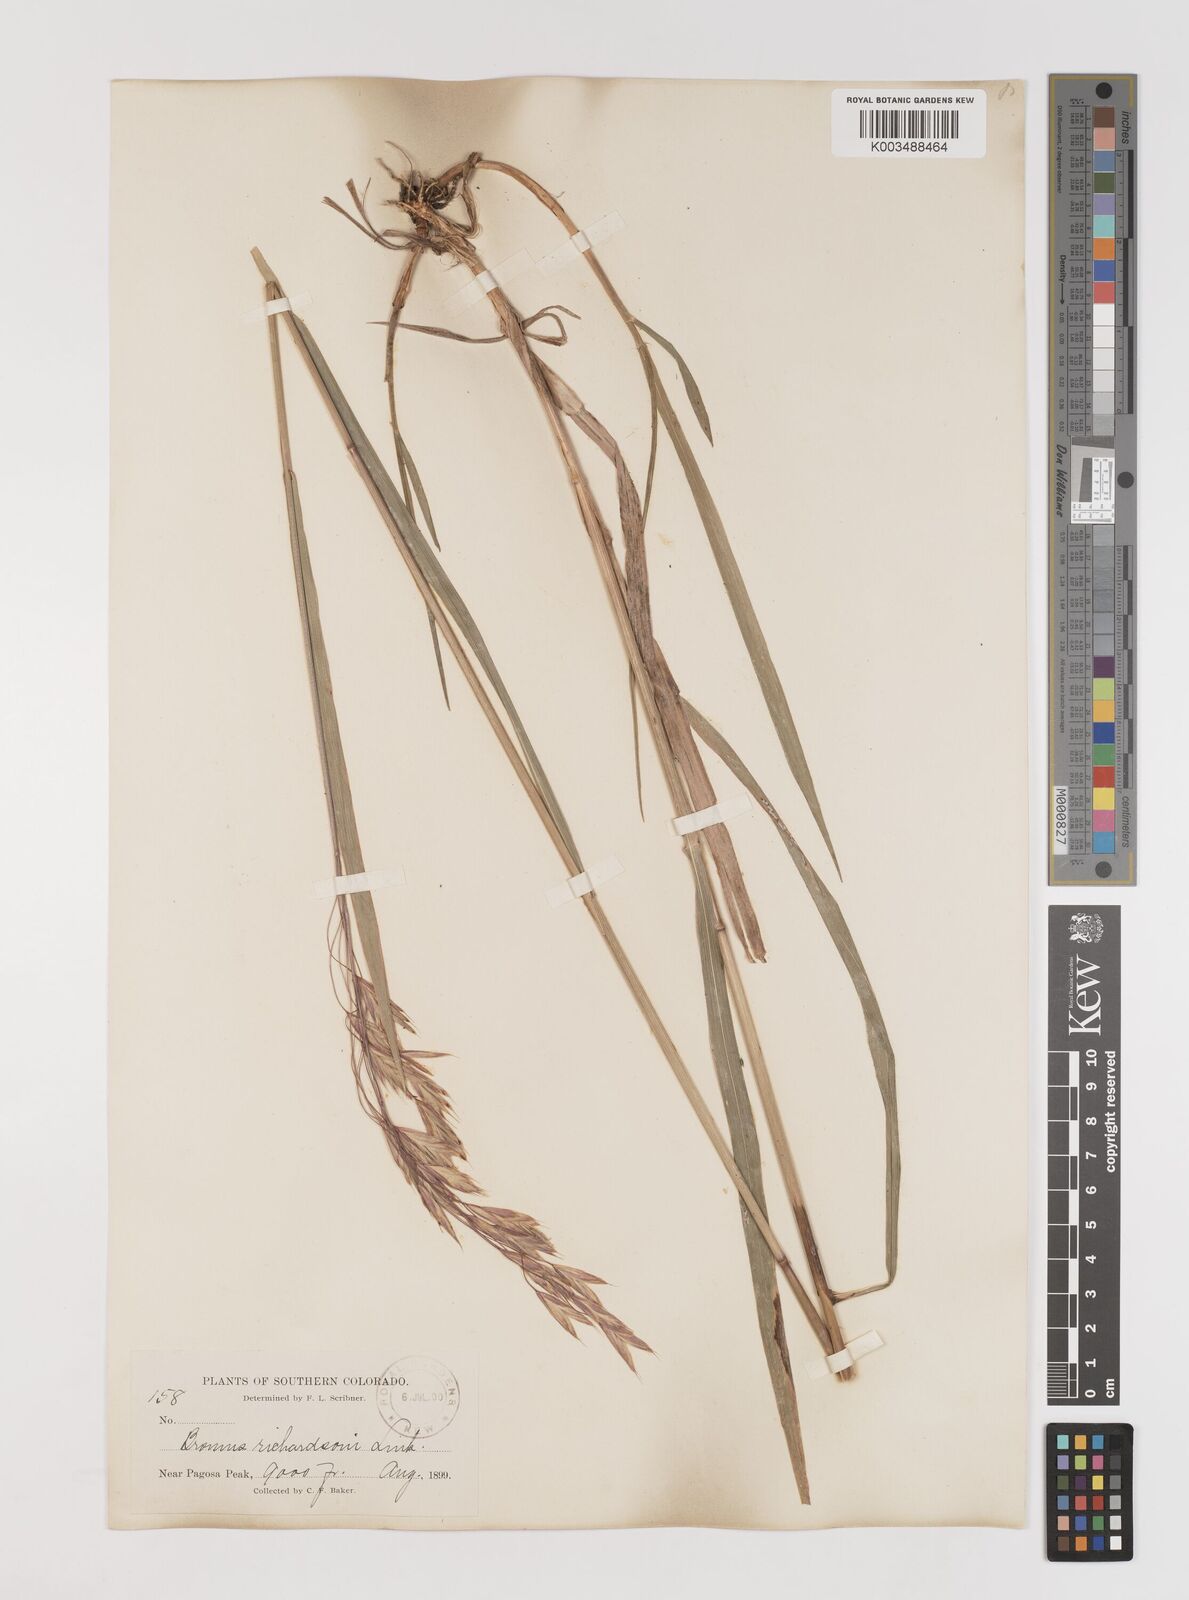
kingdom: Plantae
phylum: Tracheophyta
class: Liliopsida
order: Poales
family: Poaceae
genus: Bromus
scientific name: Bromus richardsonii
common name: Richardson's brome
